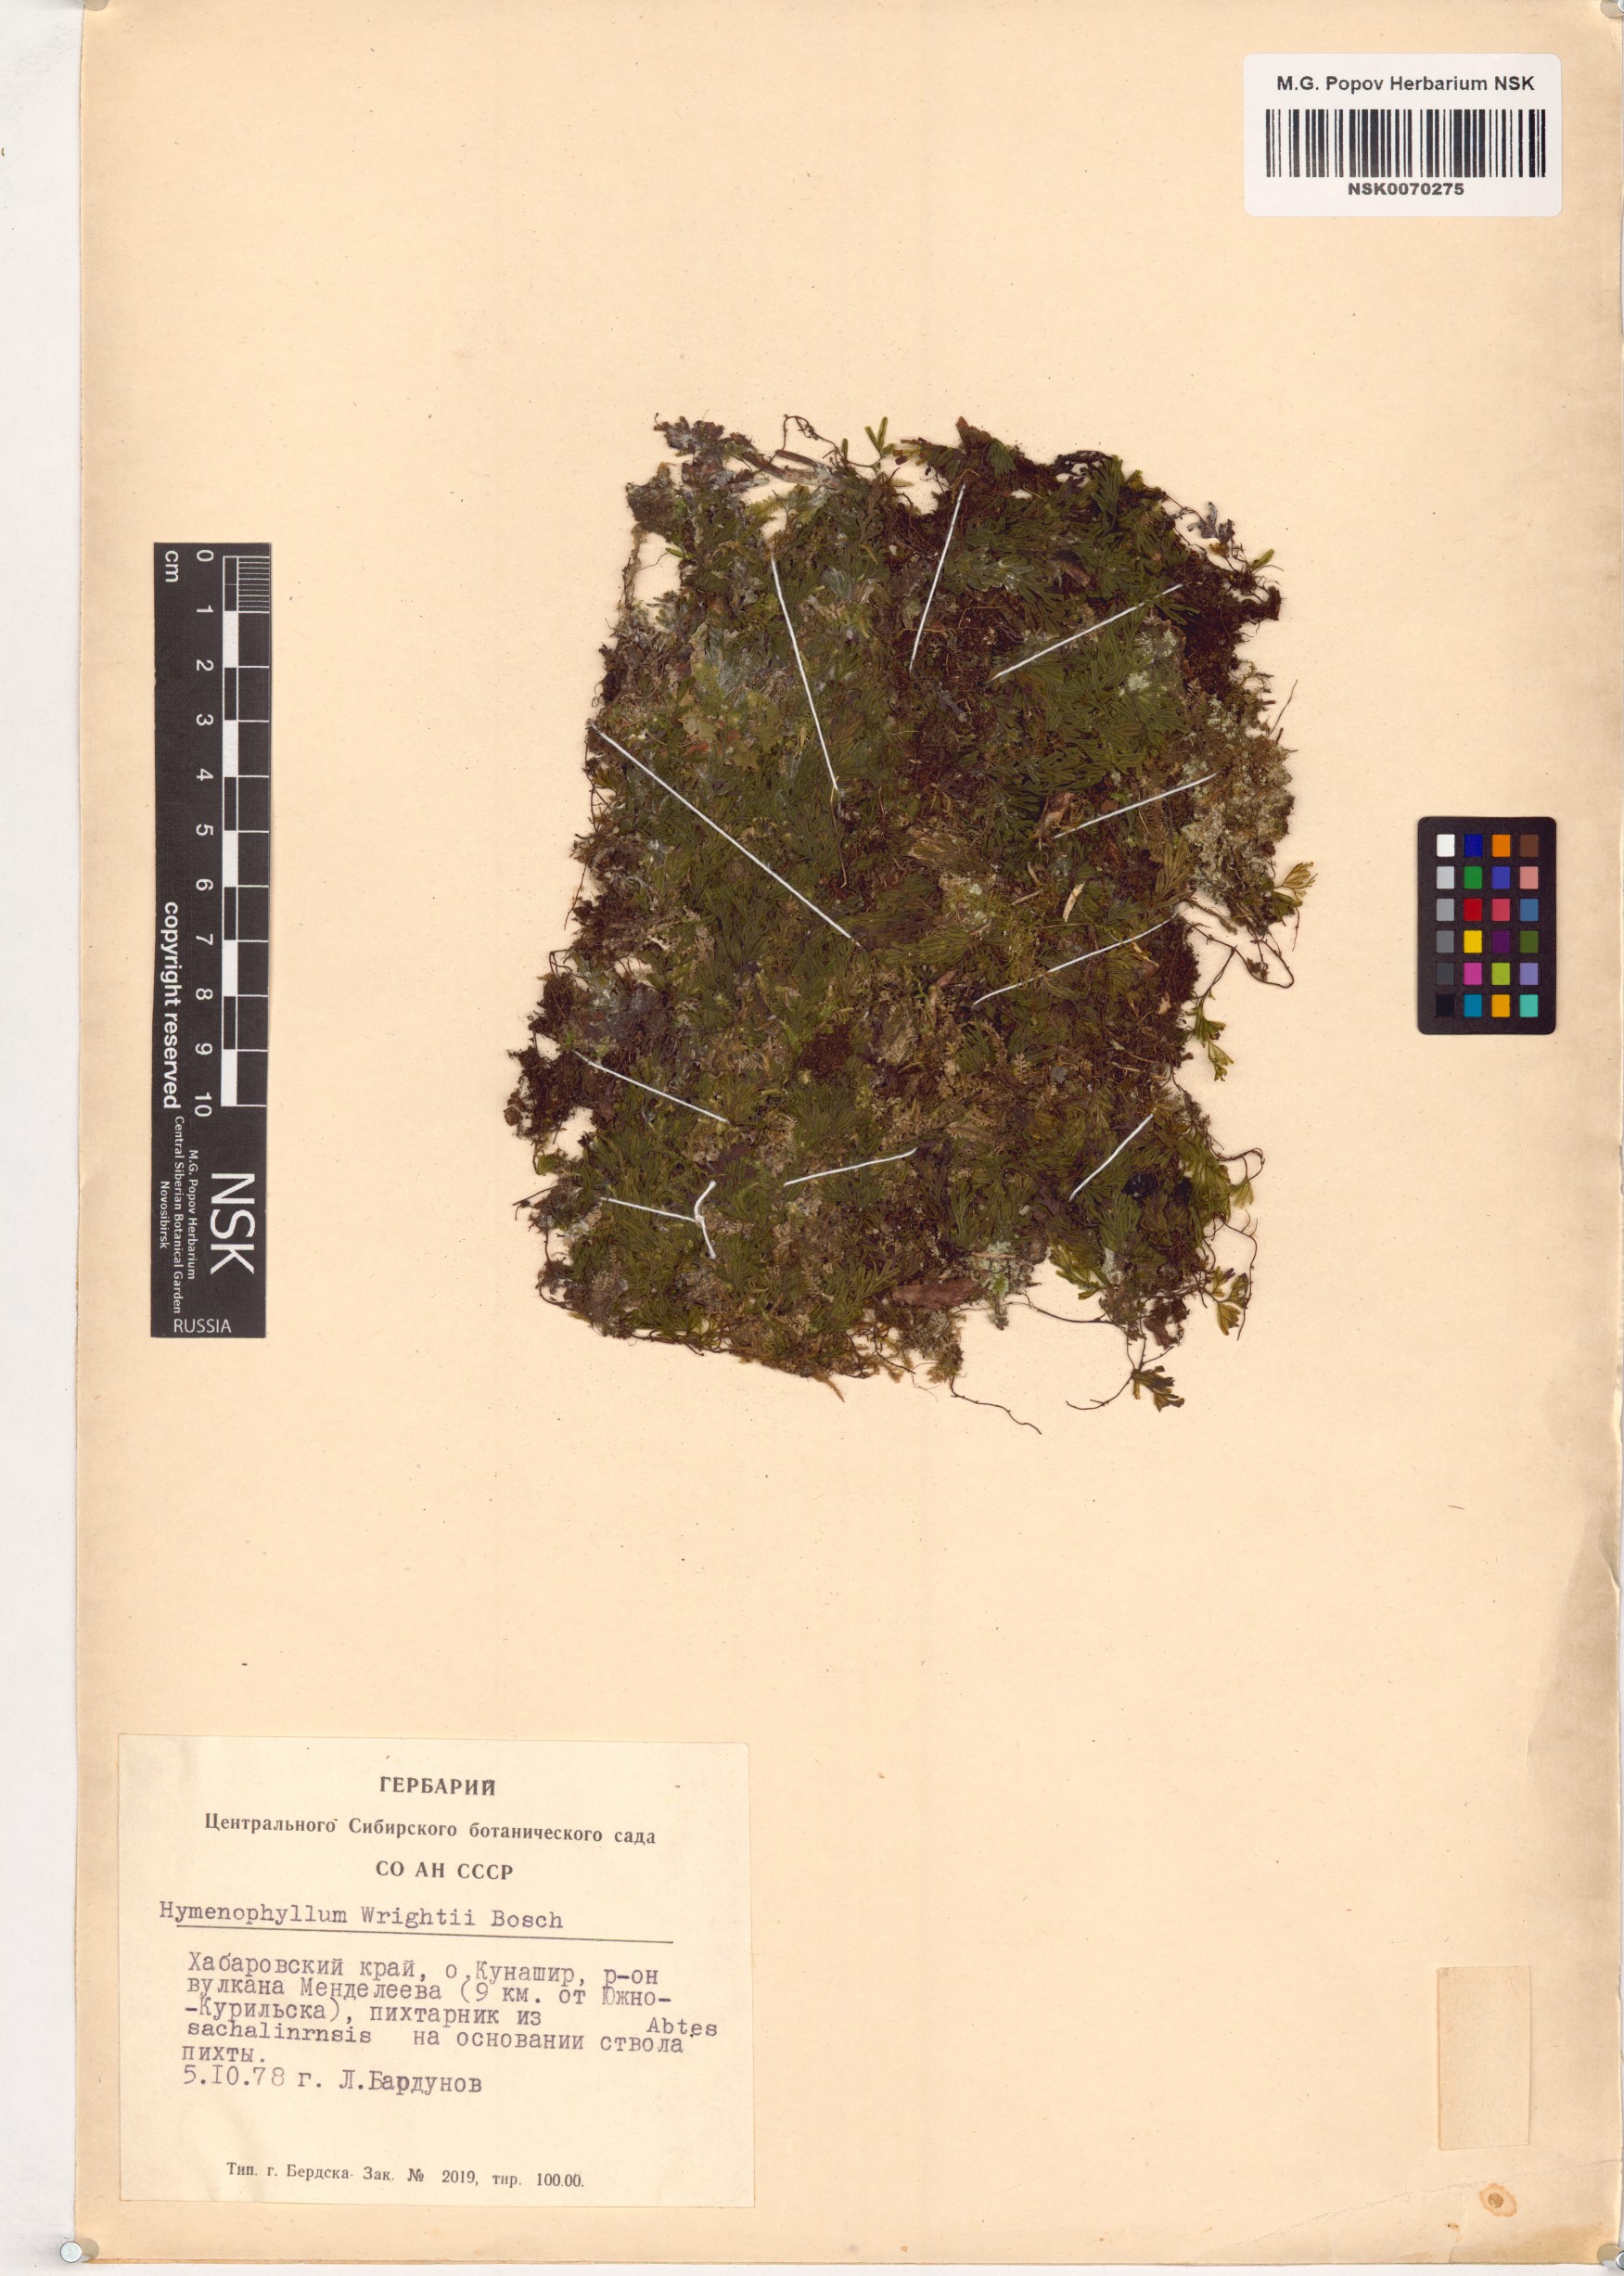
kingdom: Plantae
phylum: Tracheophyta
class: Polypodiopsida
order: Hymenophyllales
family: Hymenophyllaceae
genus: Hymenophyllum
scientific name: Hymenophyllum wrightii
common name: Wright's filmy fern
